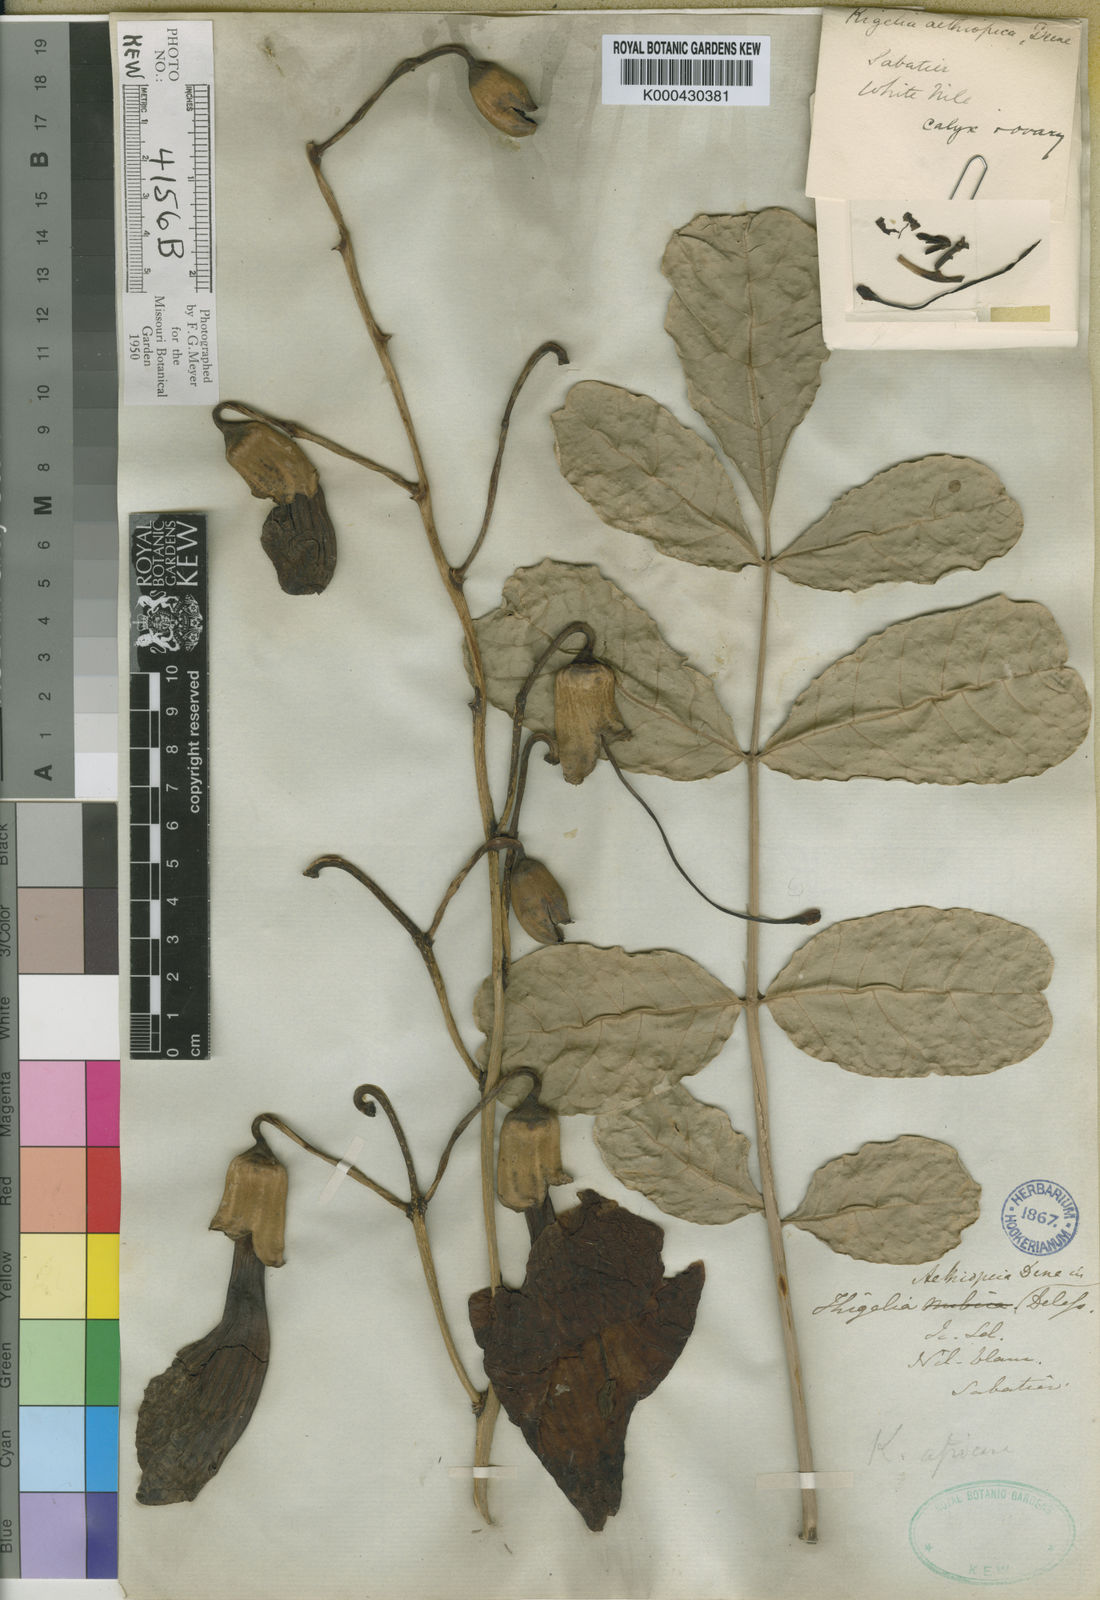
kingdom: Plantae
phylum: Tracheophyta
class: Magnoliopsida
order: Lamiales
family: Bignoniaceae
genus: Kigelia
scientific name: Kigelia africana
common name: Sausage tree
